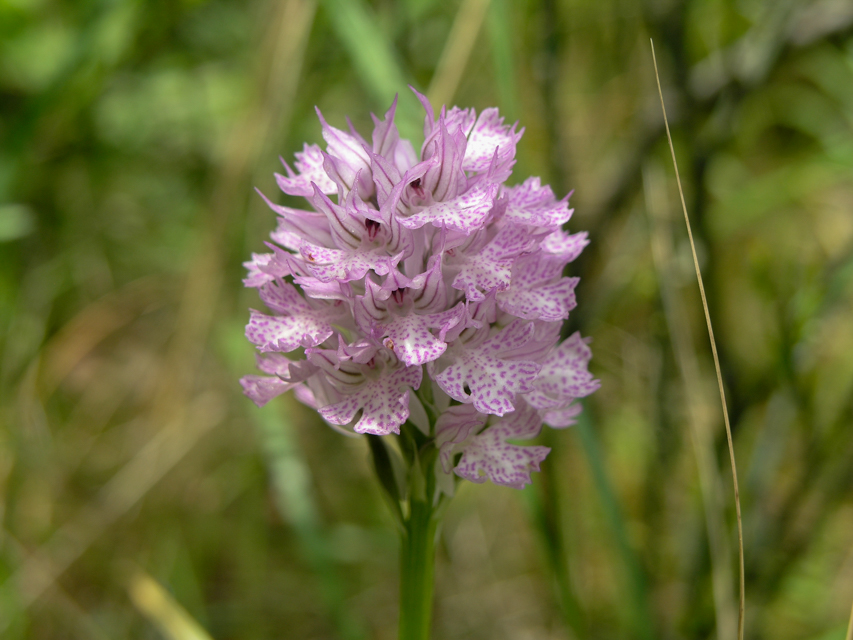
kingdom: Plantae
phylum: Tracheophyta
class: Liliopsida
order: Asparagales
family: Orchidaceae
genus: Platanthera
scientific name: Platanthera clavellata
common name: Club-spur orchid
